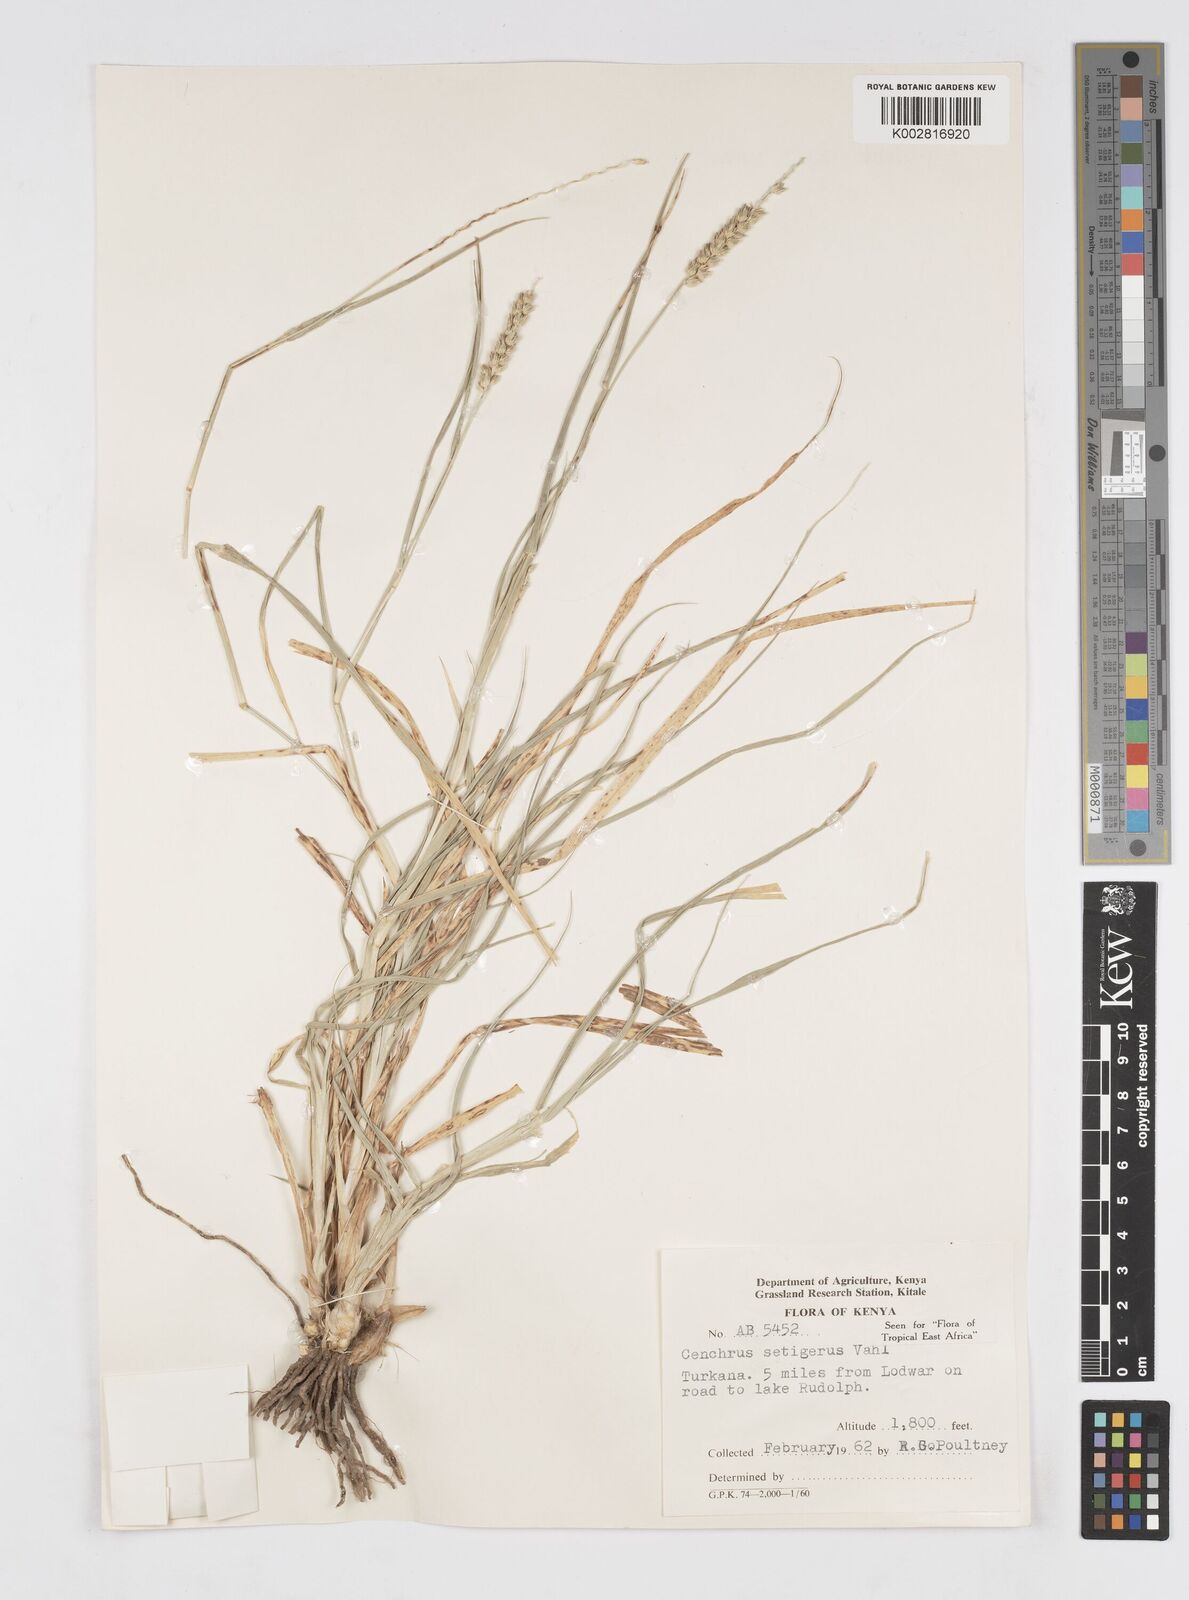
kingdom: Plantae
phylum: Tracheophyta
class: Liliopsida
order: Poales
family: Poaceae
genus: Cenchrus
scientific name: Cenchrus setigerus
